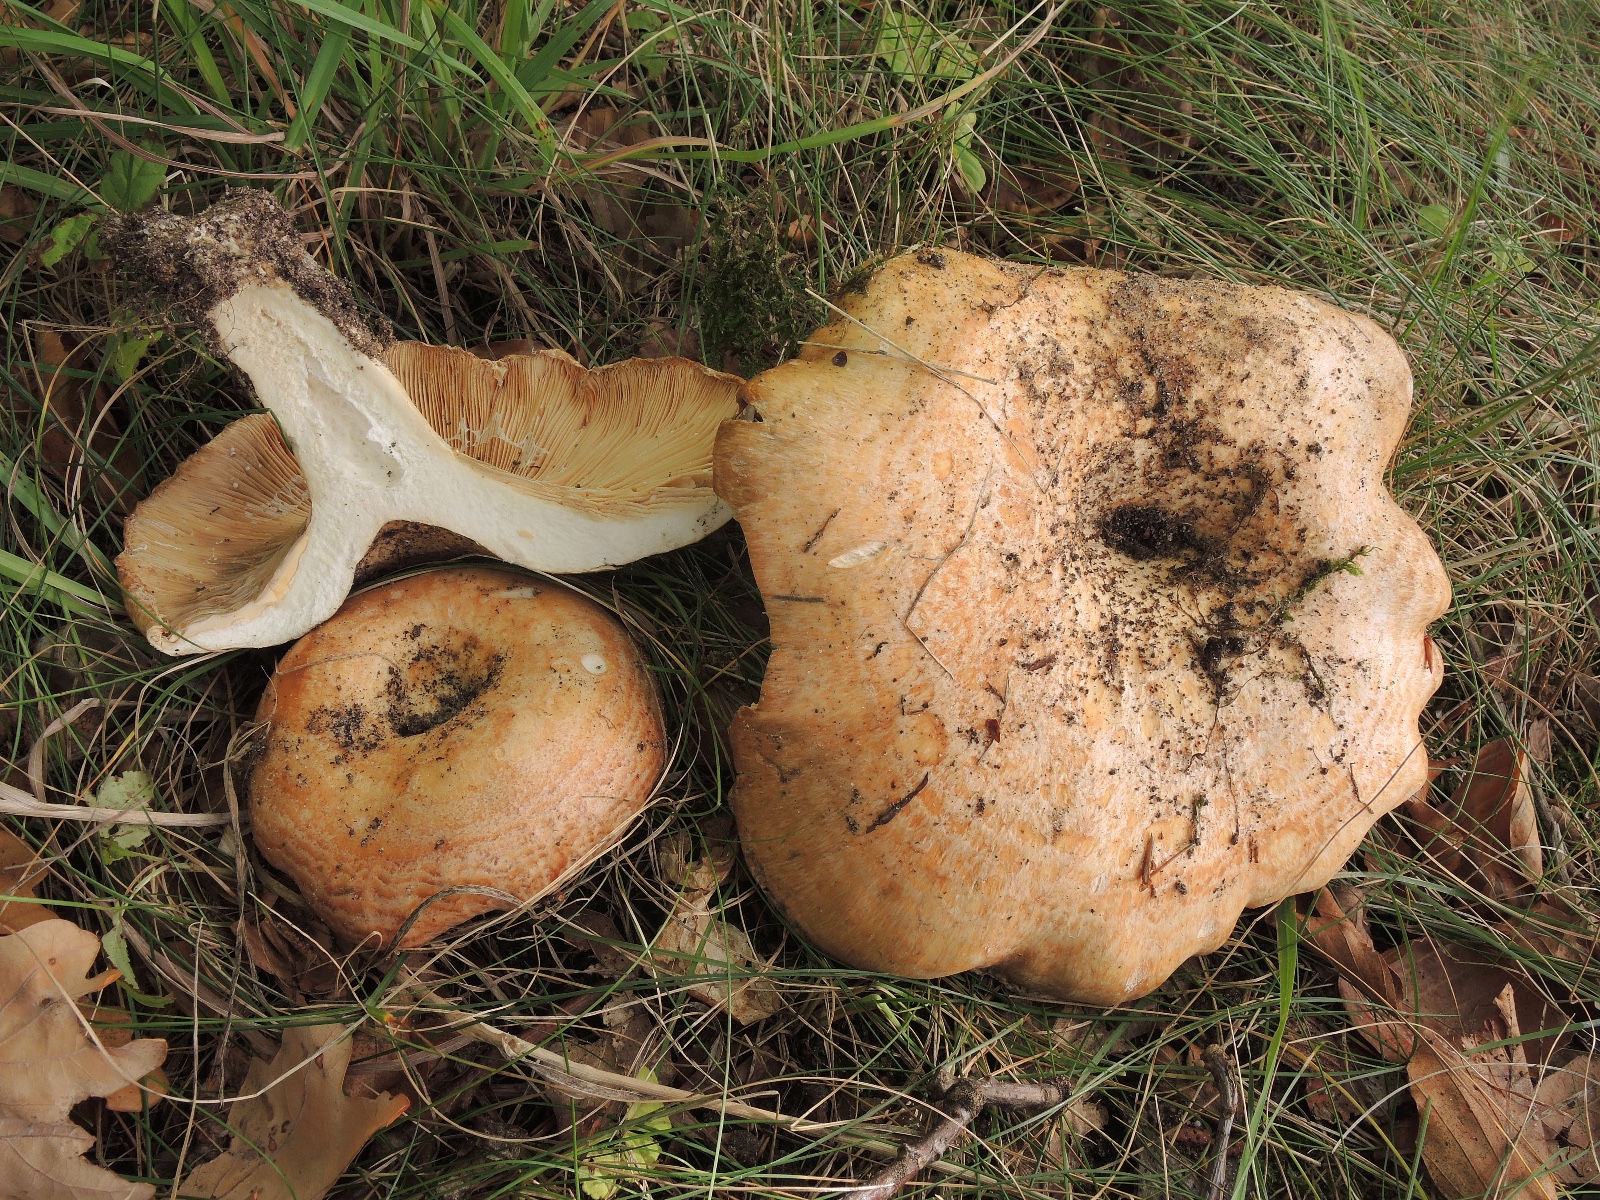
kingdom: Fungi
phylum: Basidiomycota
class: Agaricomycetes
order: Russulales
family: Russulaceae
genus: Lactarius
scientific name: Lactarius zonarius
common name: zoneret mælkehat
